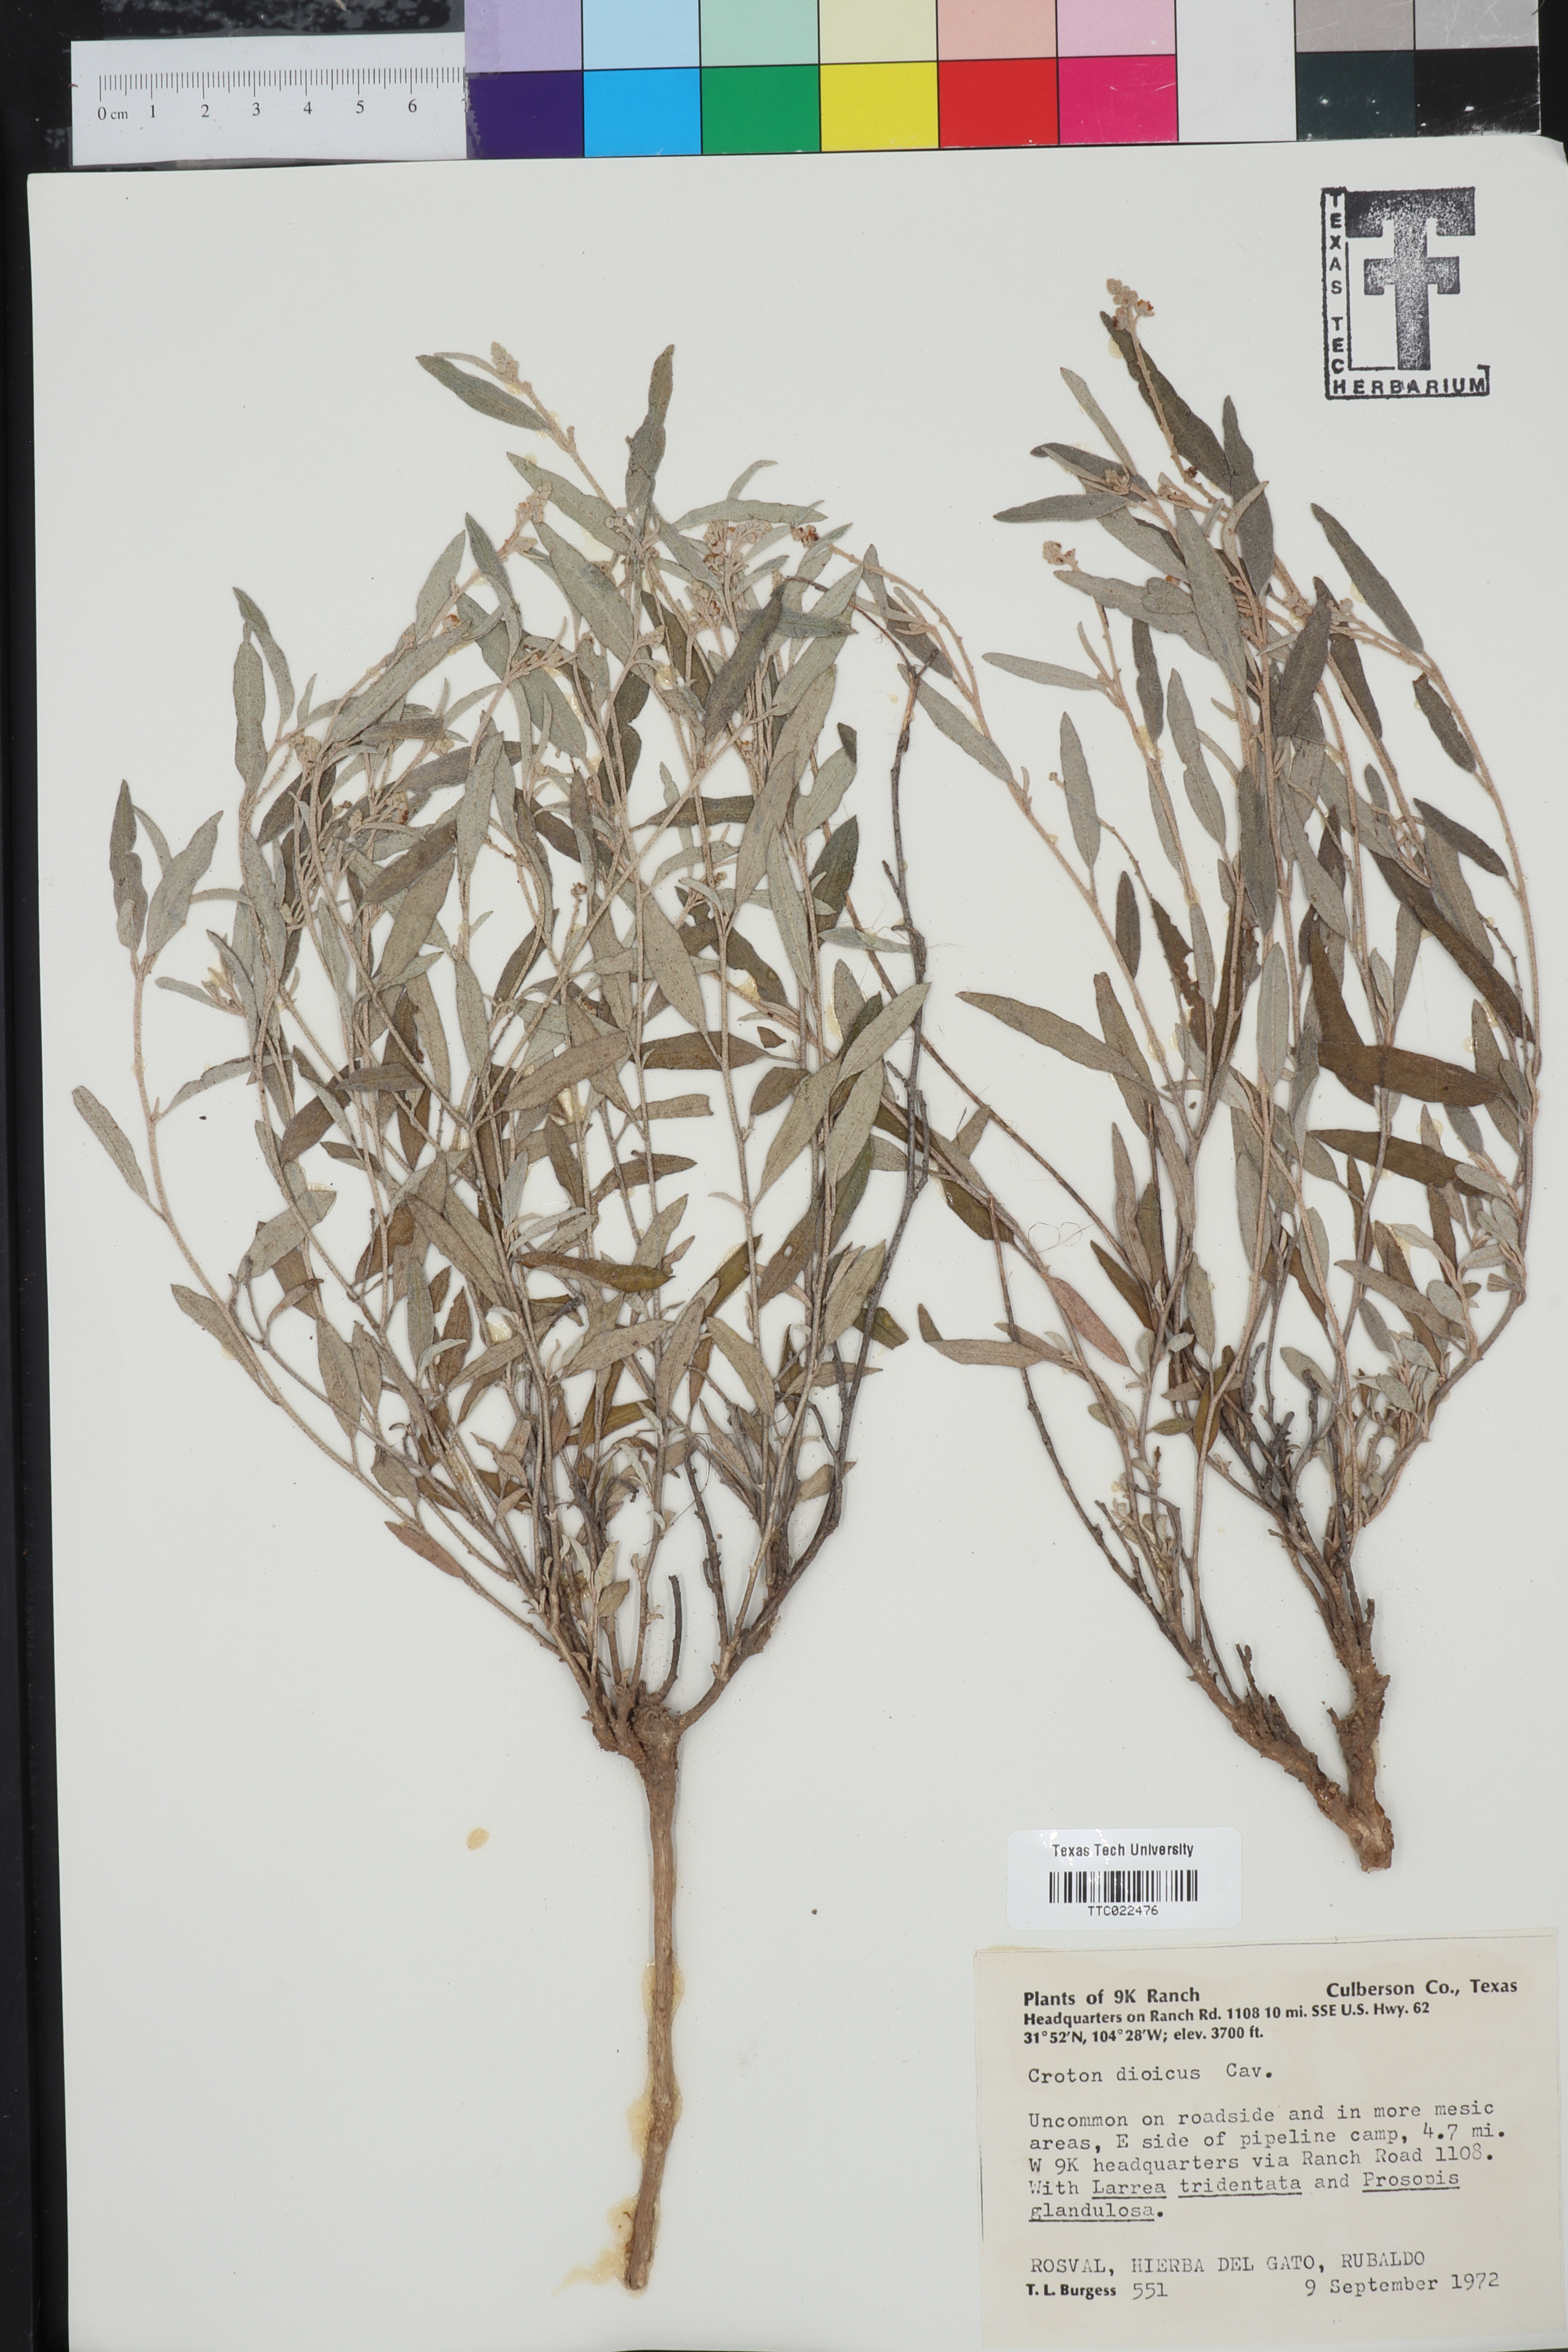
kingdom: Plantae
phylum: Tracheophyta
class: Magnoliopsida
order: Malpighiales
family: Euphorbiaceae
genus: Croton
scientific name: Croton dioicus
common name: Grassland croton
